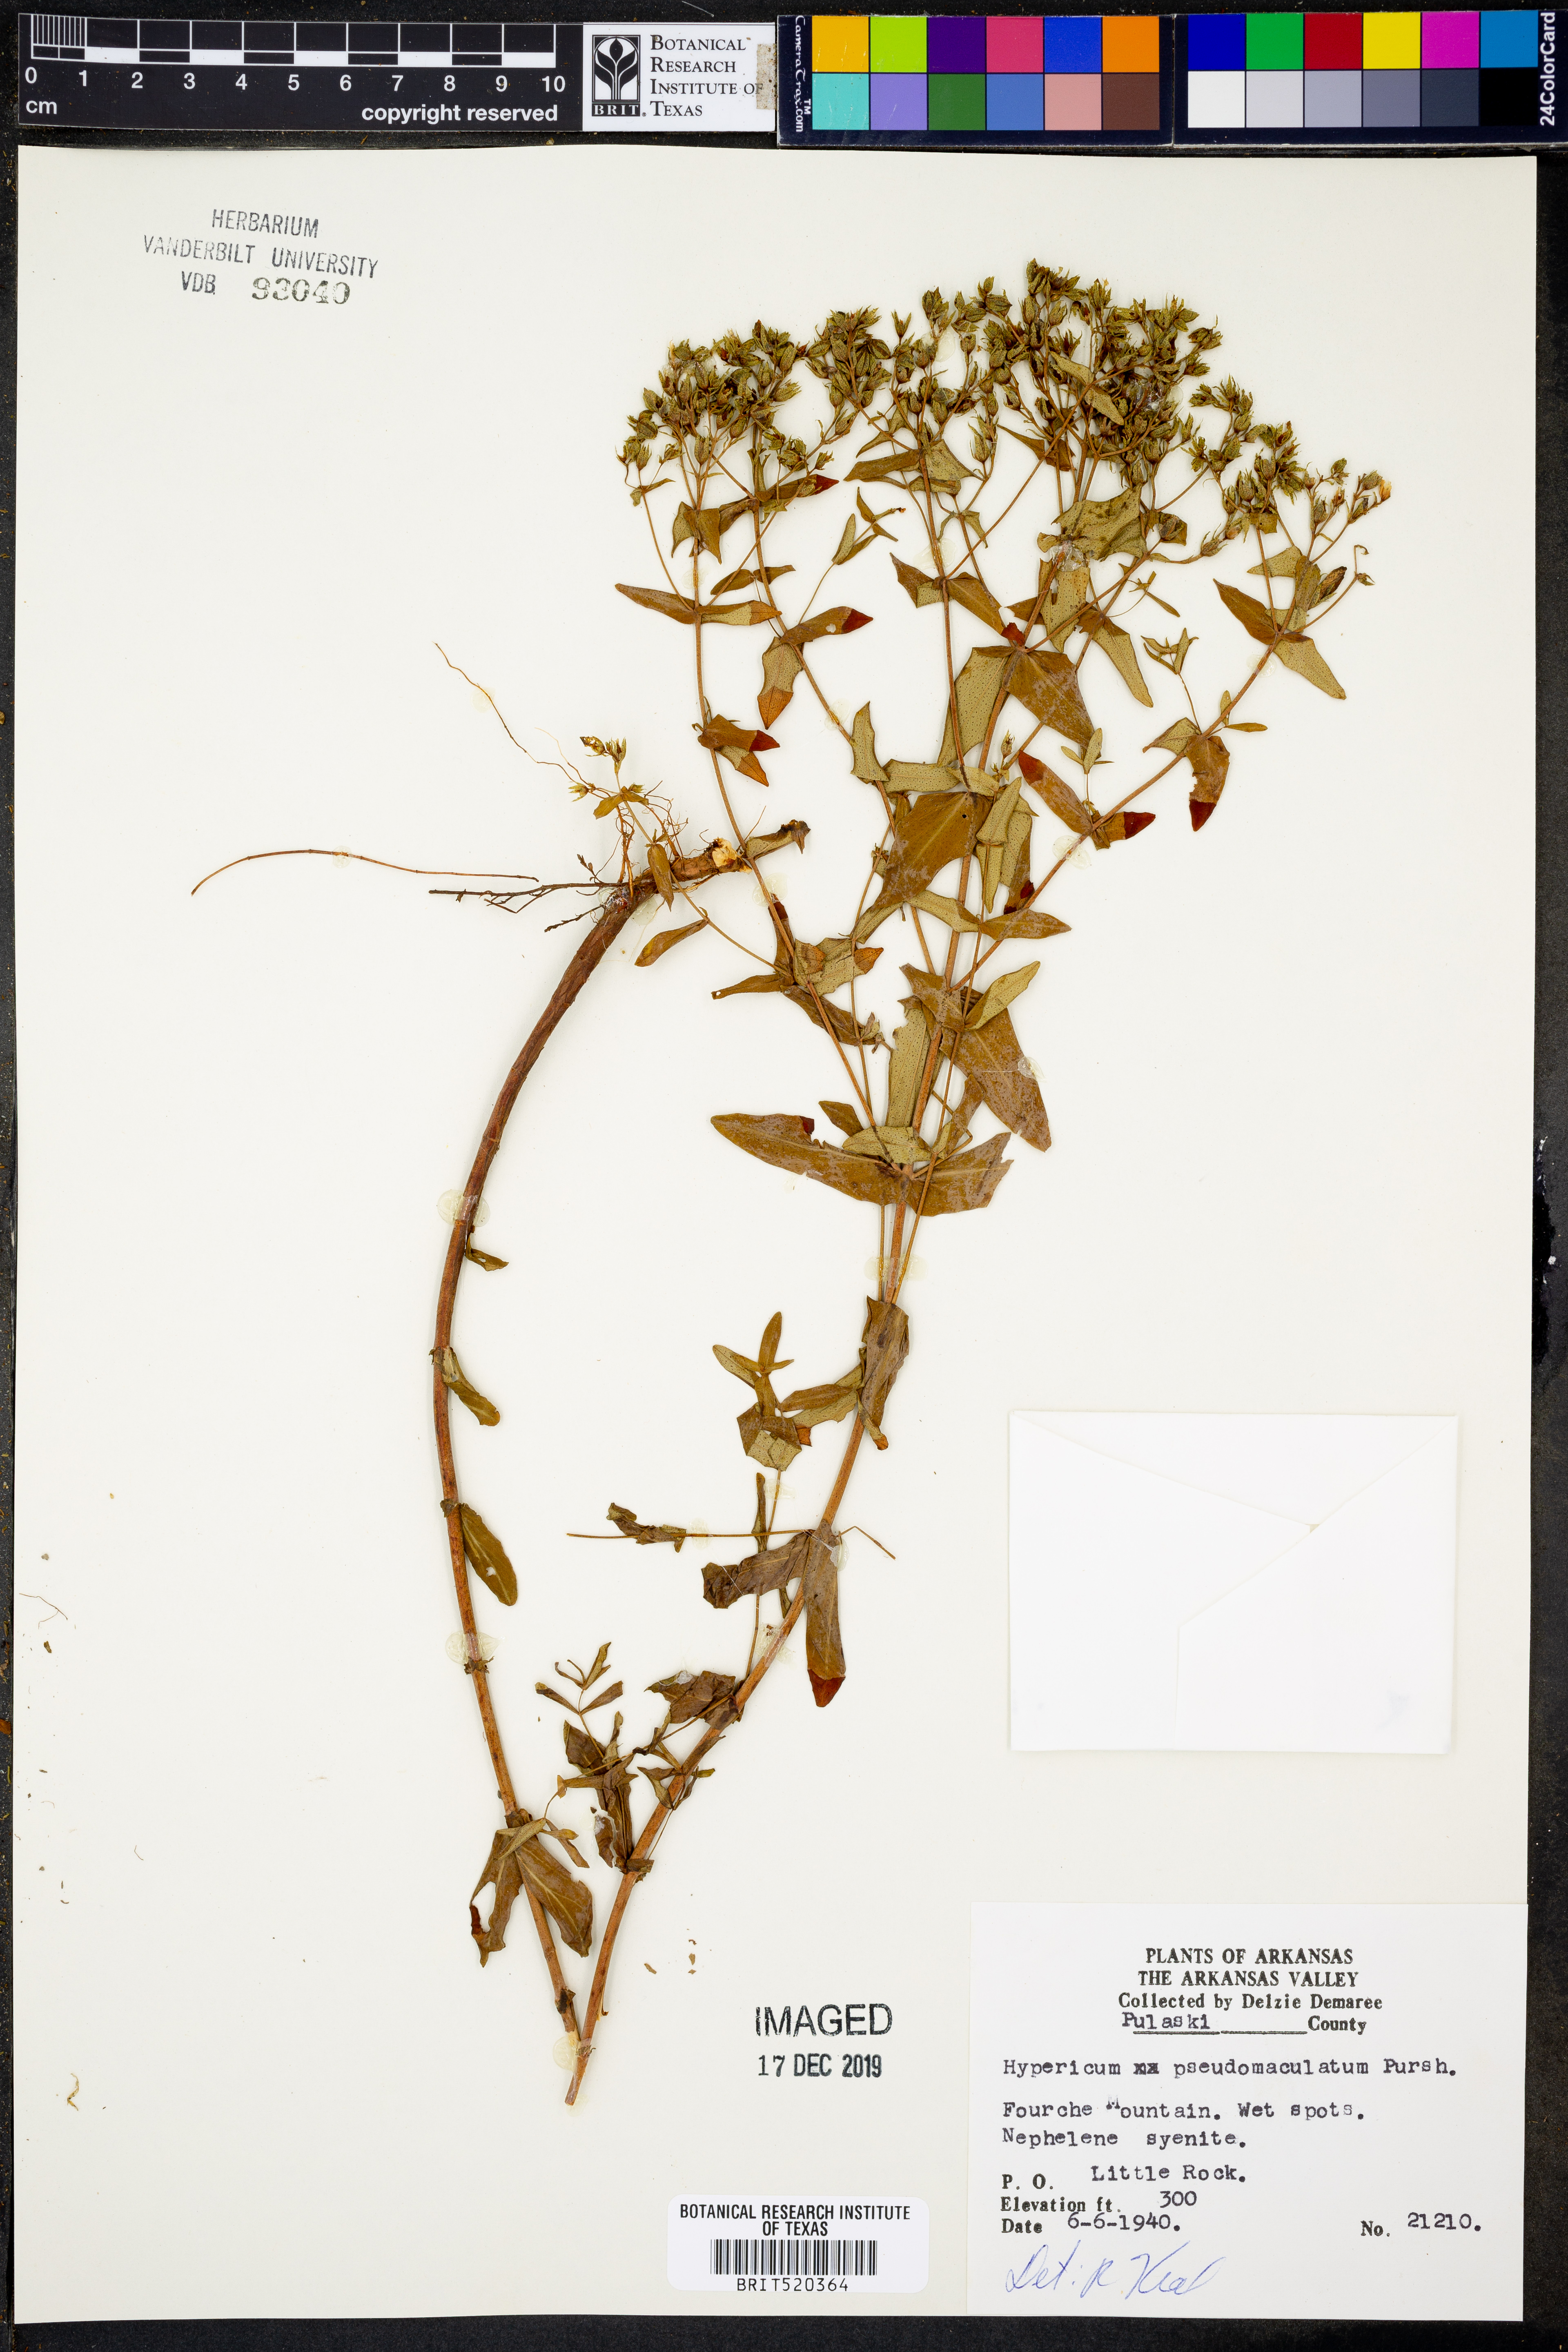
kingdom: Plantae
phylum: Tracheophyta
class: Magnoliopsida
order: Malpighiales
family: Hypericaceae
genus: Hypericum
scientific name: Hypericum pseudomaculatum
